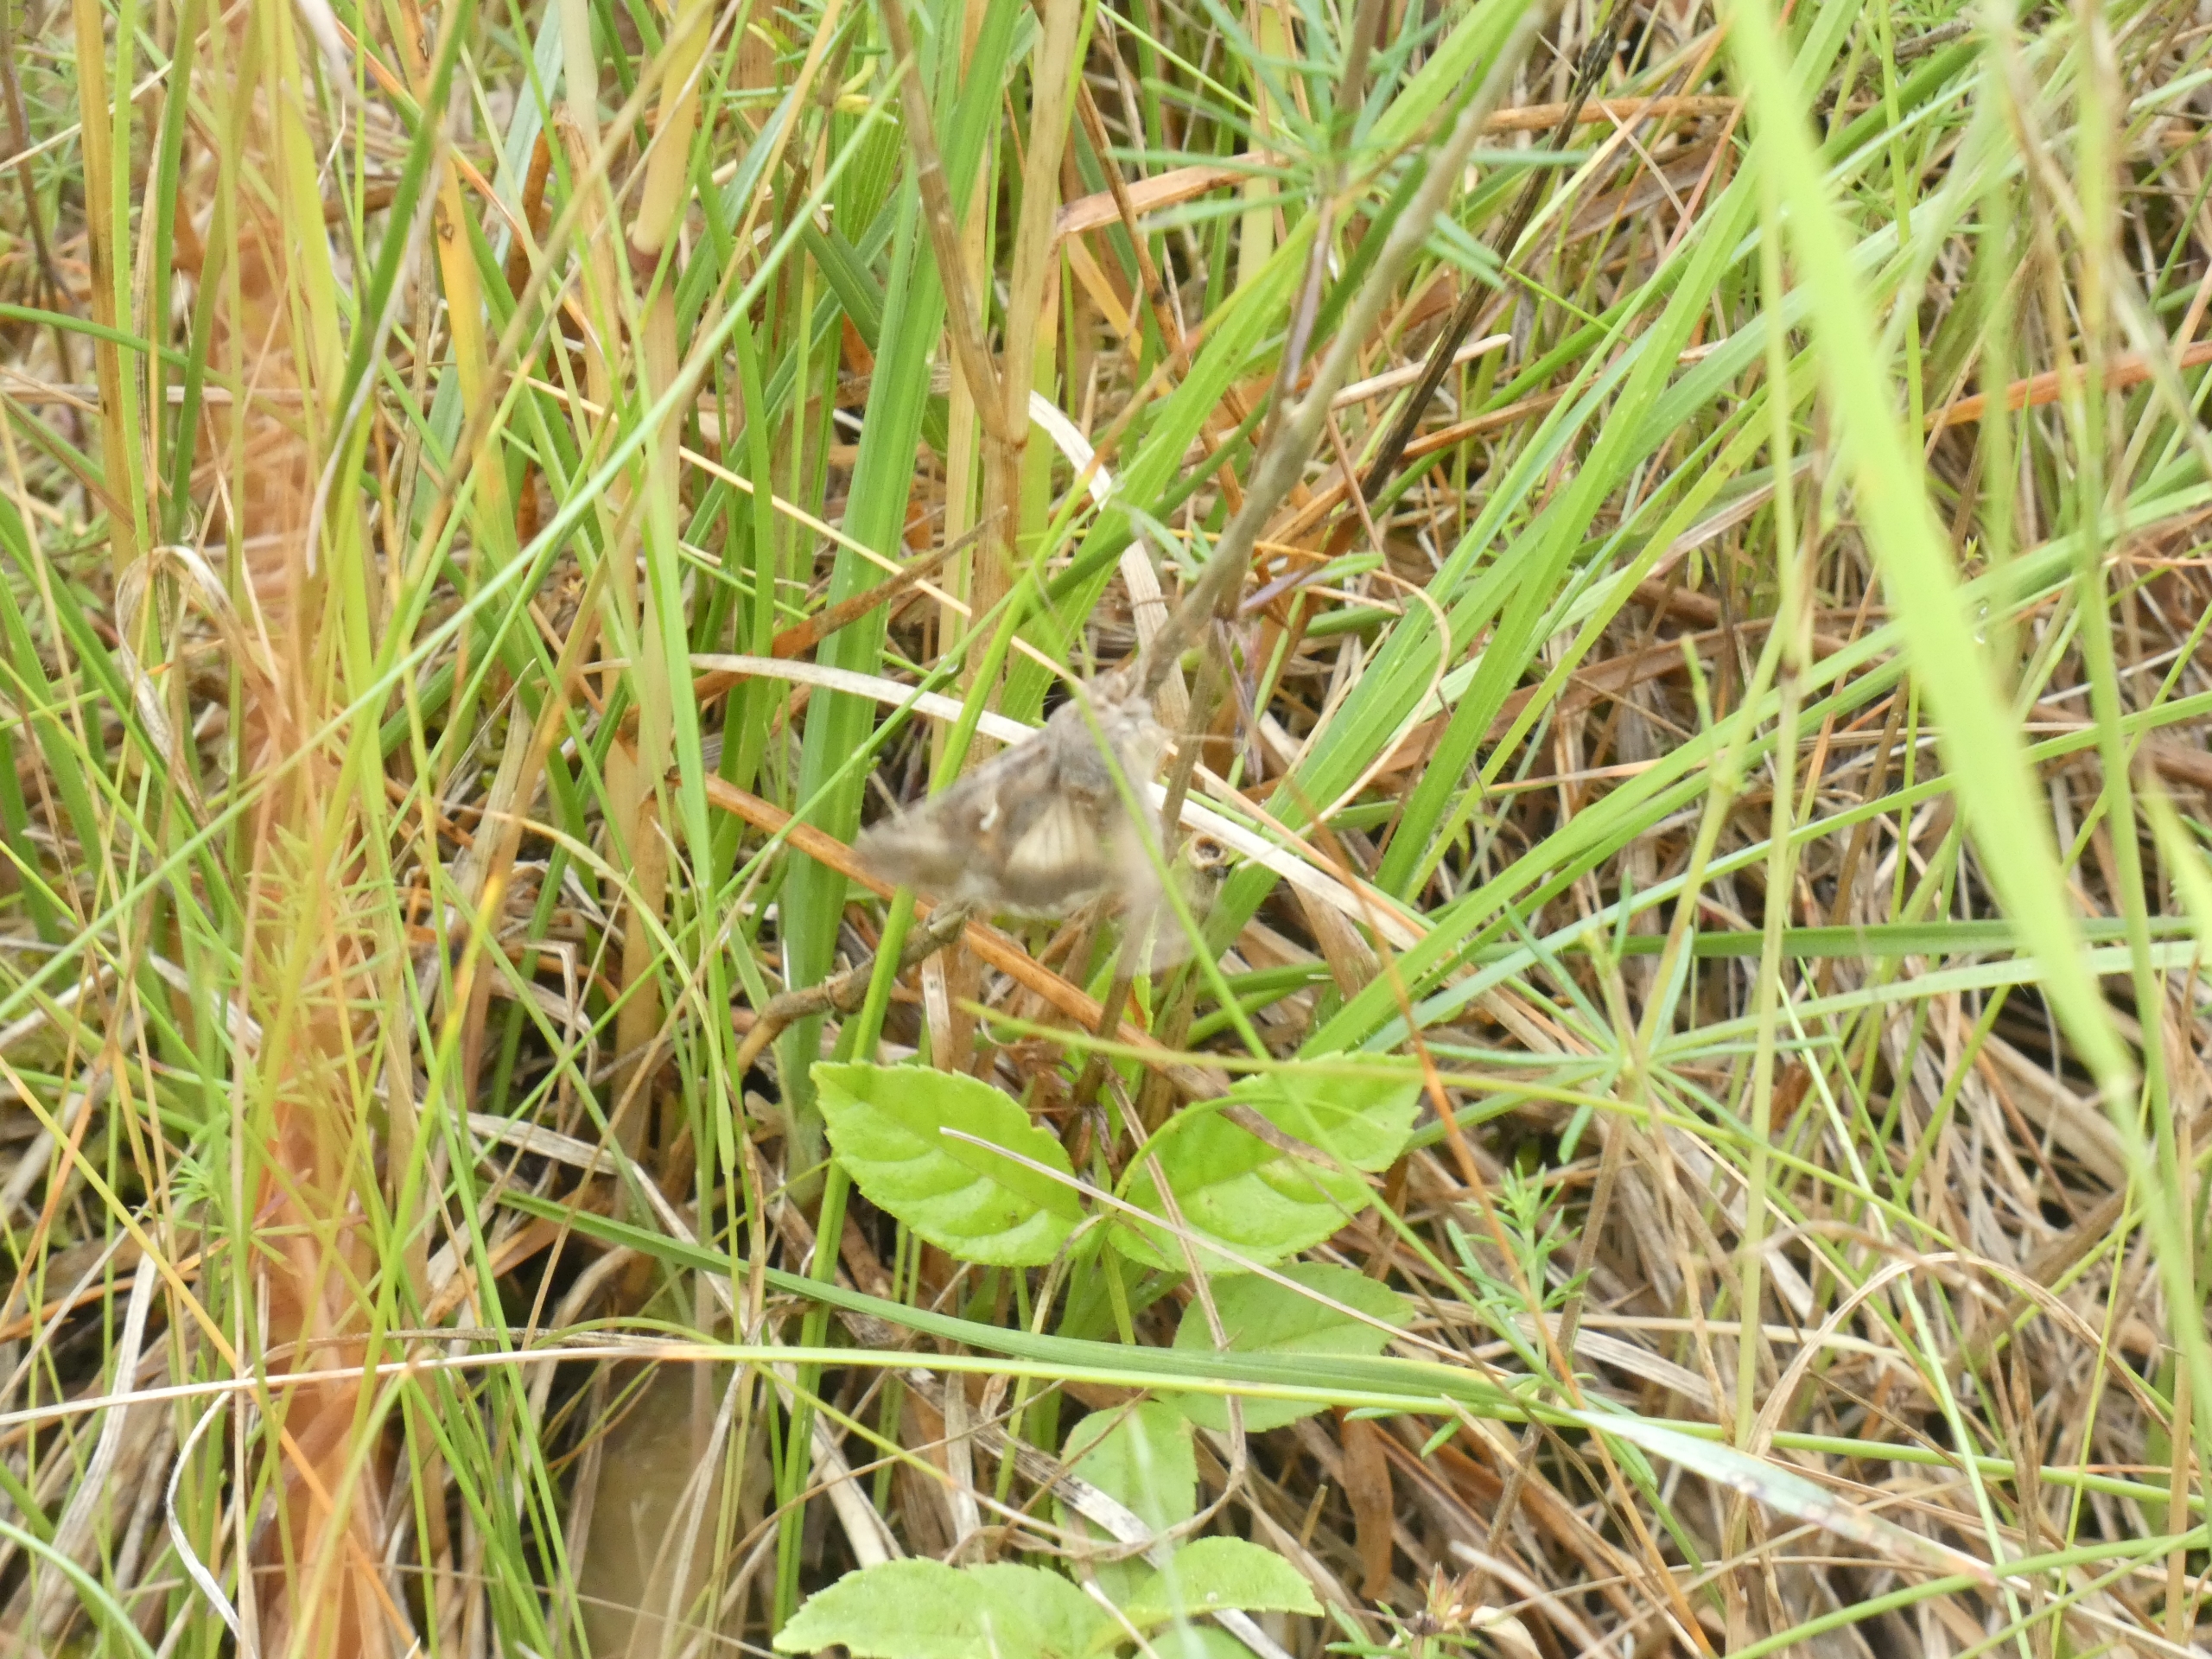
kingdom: Animalia
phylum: Arthropoda
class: Insecta
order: Lepidoptera
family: Noctuidae
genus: Autographa
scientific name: Autographa gamma
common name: Gammaugle
